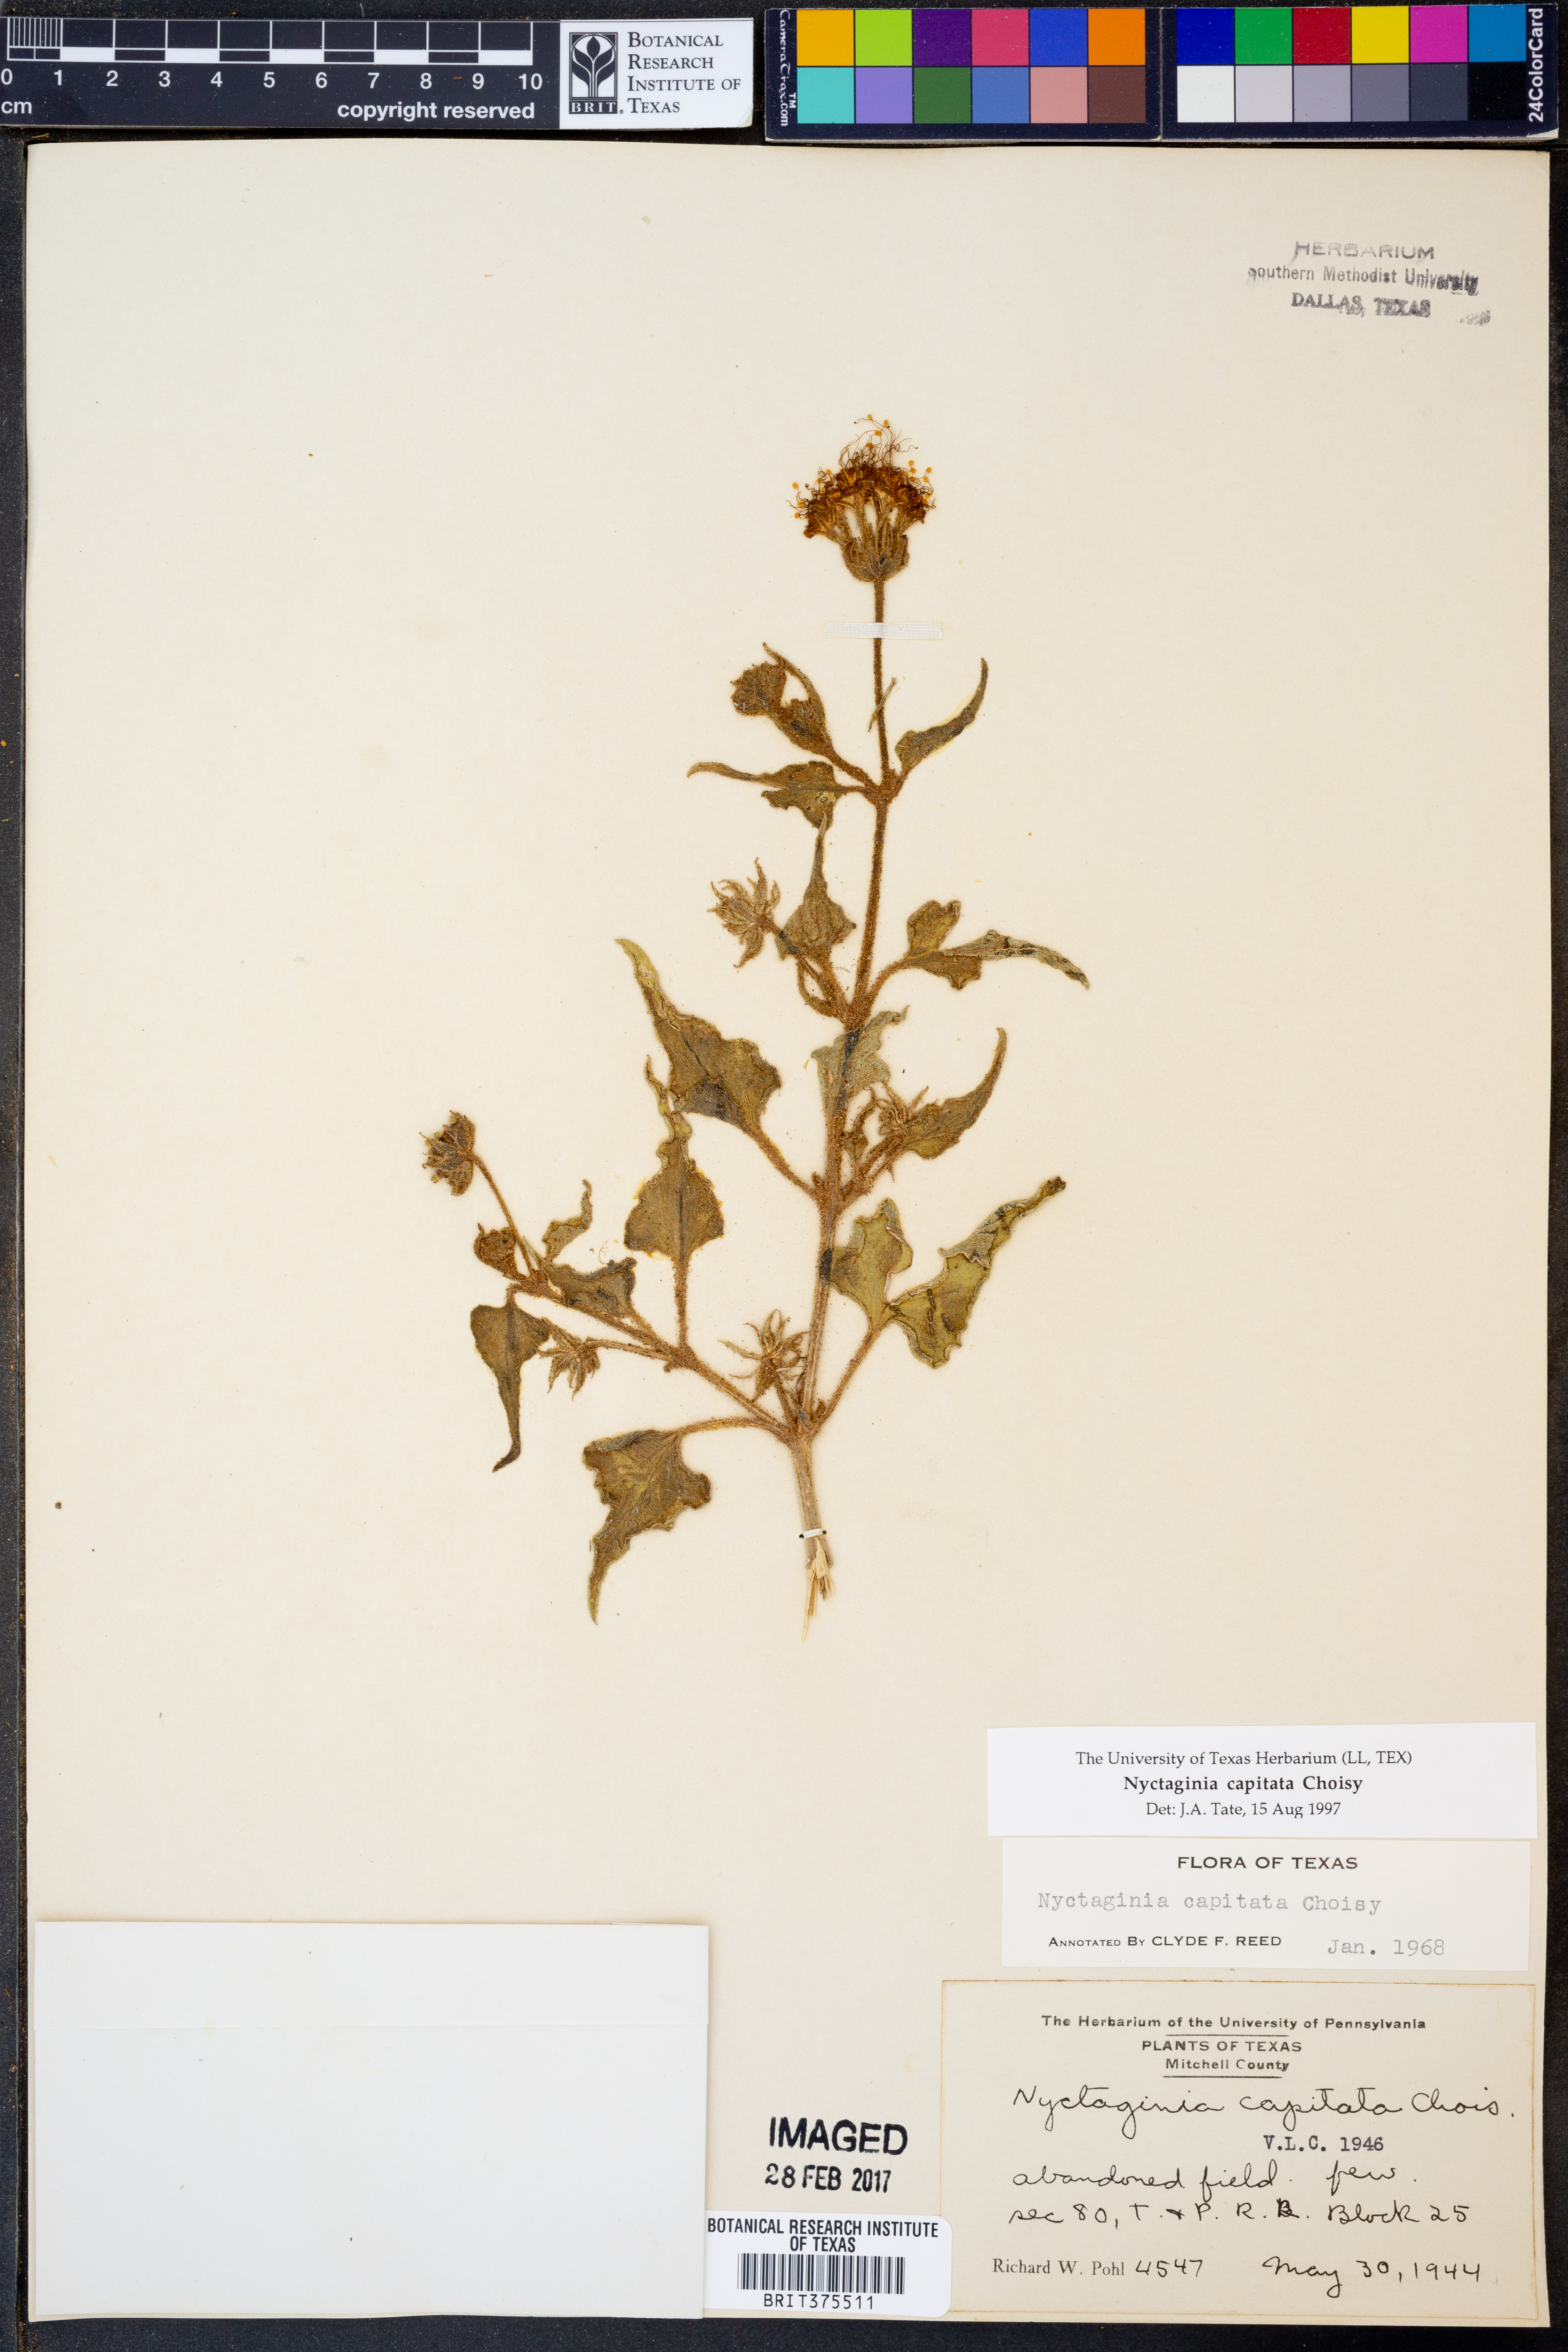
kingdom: Plantae
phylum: Tracheophyta
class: Magnoliopsida
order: Caryophyllales
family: Nyctaginaceae
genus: Nyctaginia
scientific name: Nyctaginia capitata
